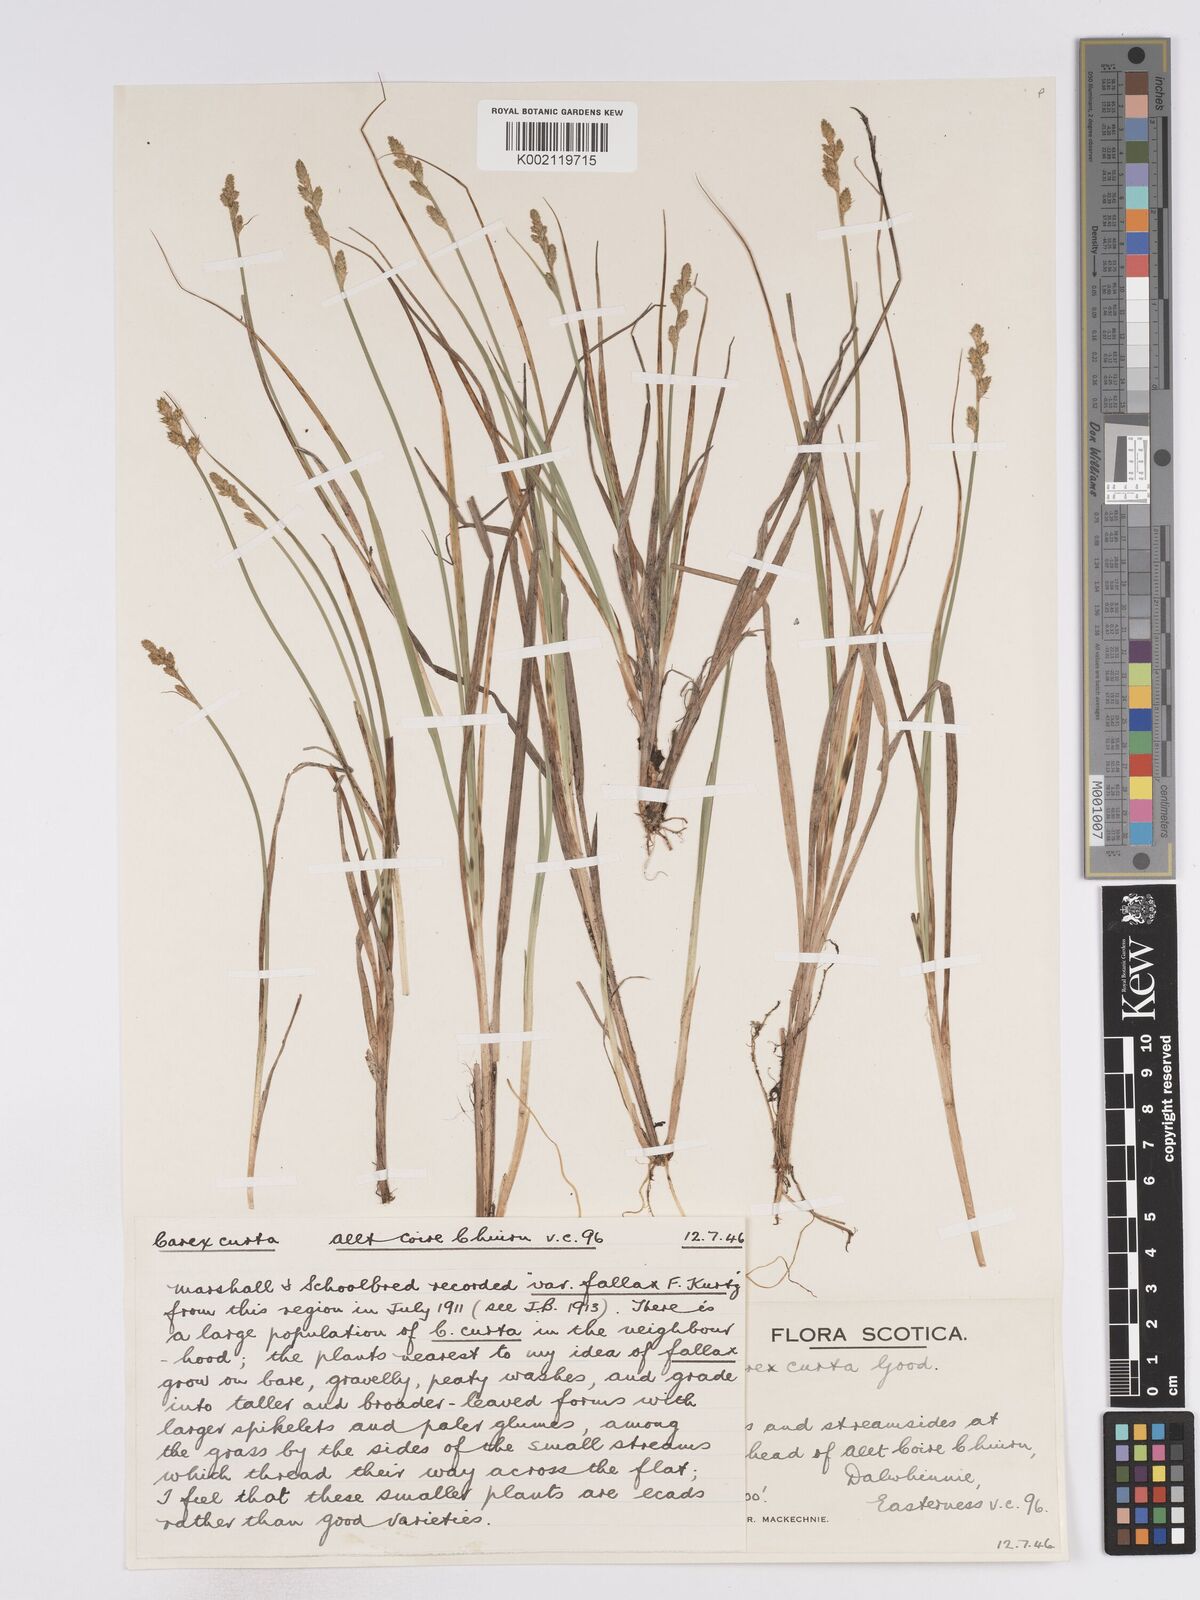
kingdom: Plantae
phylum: Tracheophyta
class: Liliopsida
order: Poales
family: Cyperaceae
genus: Carex
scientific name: Carex curta
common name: White sedge
